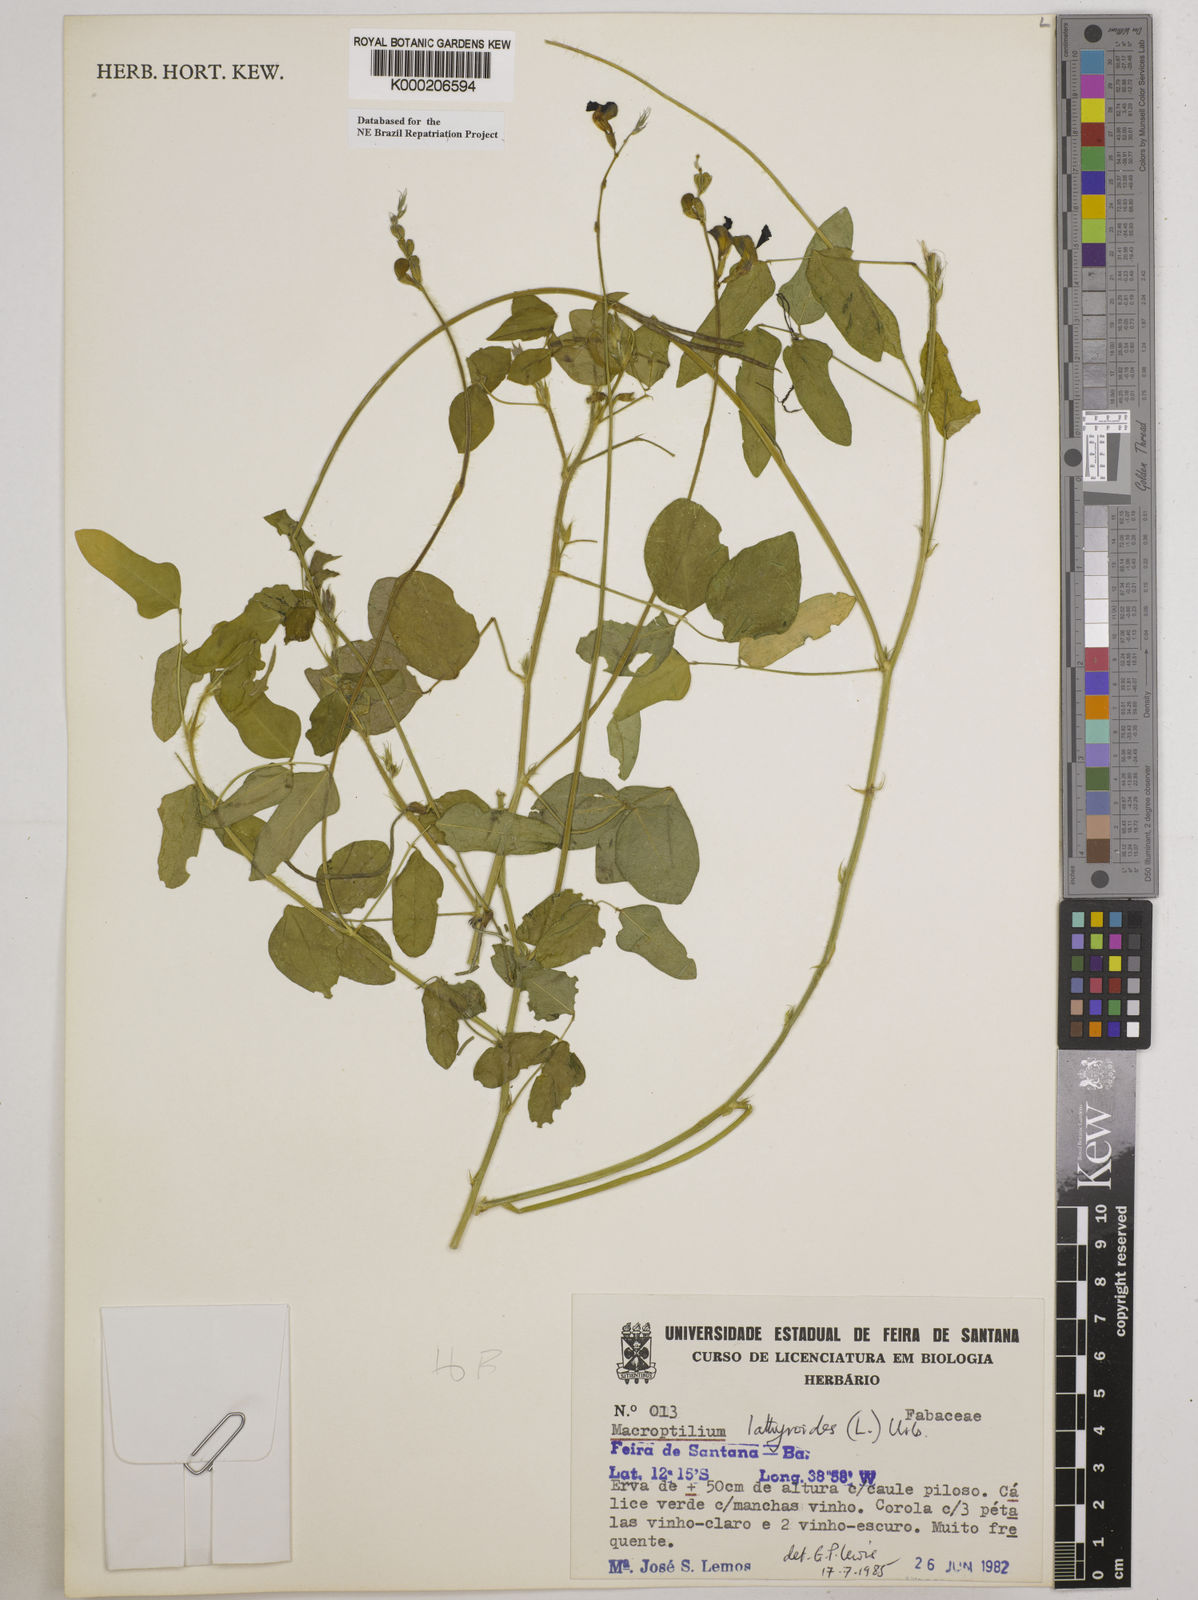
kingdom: Plantae
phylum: Tracheophyta
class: Magnoliopsida
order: Fabales
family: Fabaceae
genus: Macroptilium
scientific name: Macroptilium lathyroides
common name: Wild bushbean
